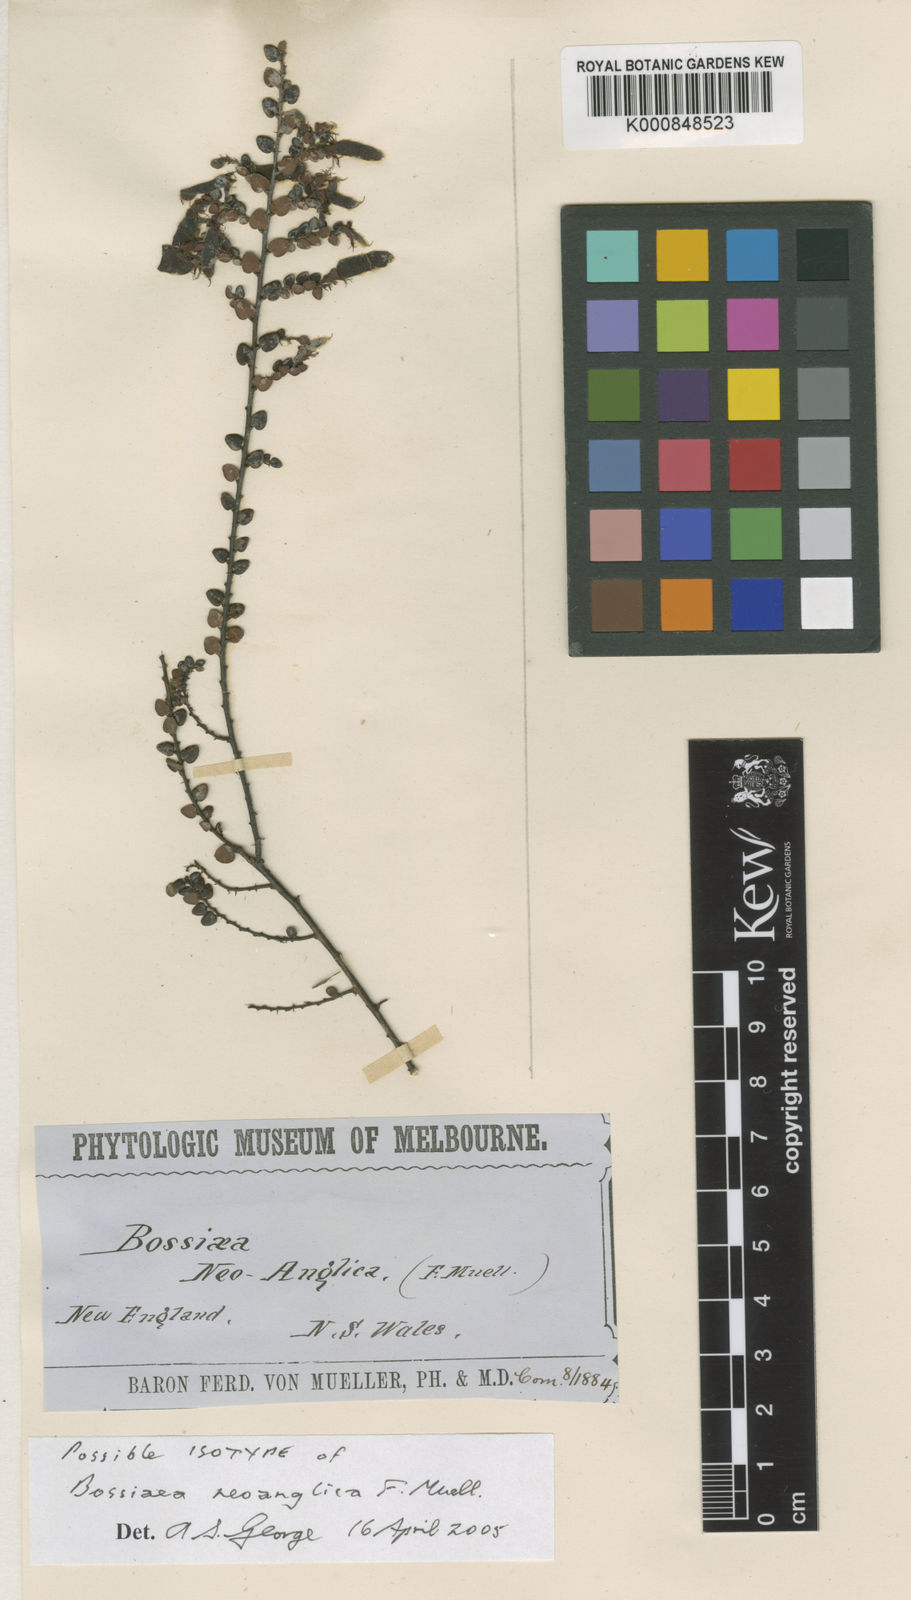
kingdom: Plantae
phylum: Tracheophyta
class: Magnoliopsida
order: Fabales
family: Fabaceae
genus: Bossiaea
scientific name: Bossiaea buxifolia
